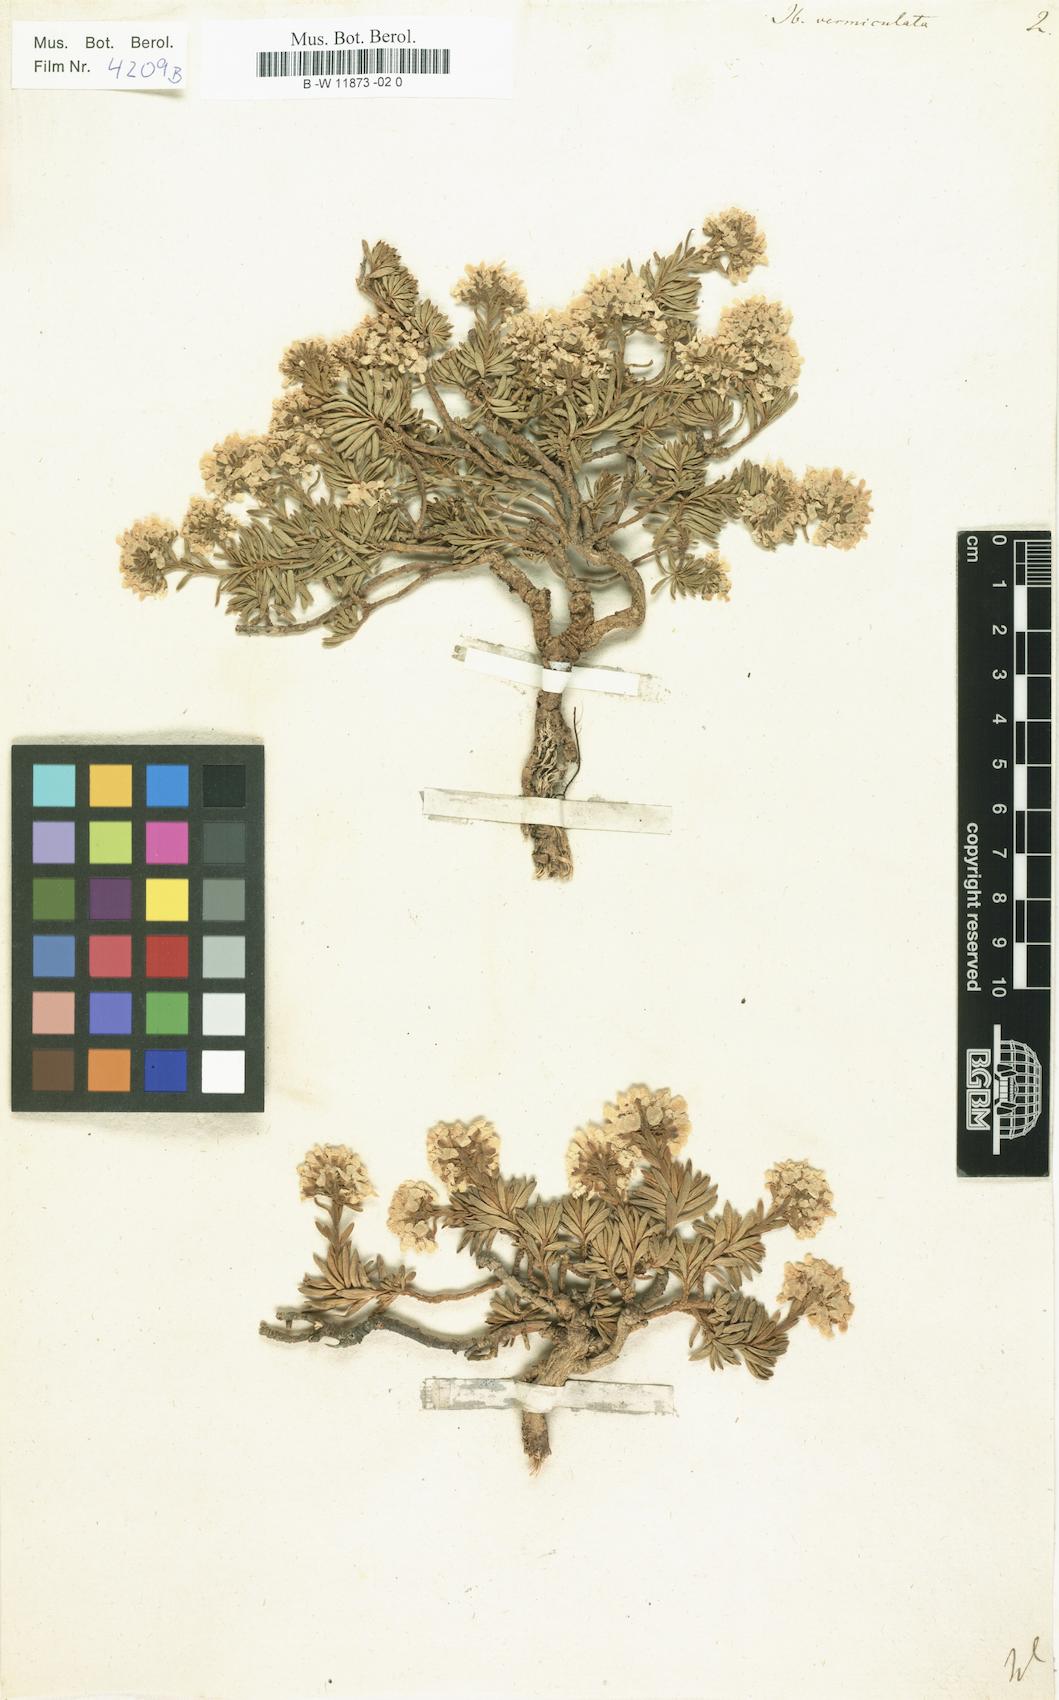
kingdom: Plantae
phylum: Tracheophyta
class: Magnoliopsida
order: Brassicales
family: Brassicaceae
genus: Iberis
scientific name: Iberis saxatilis
